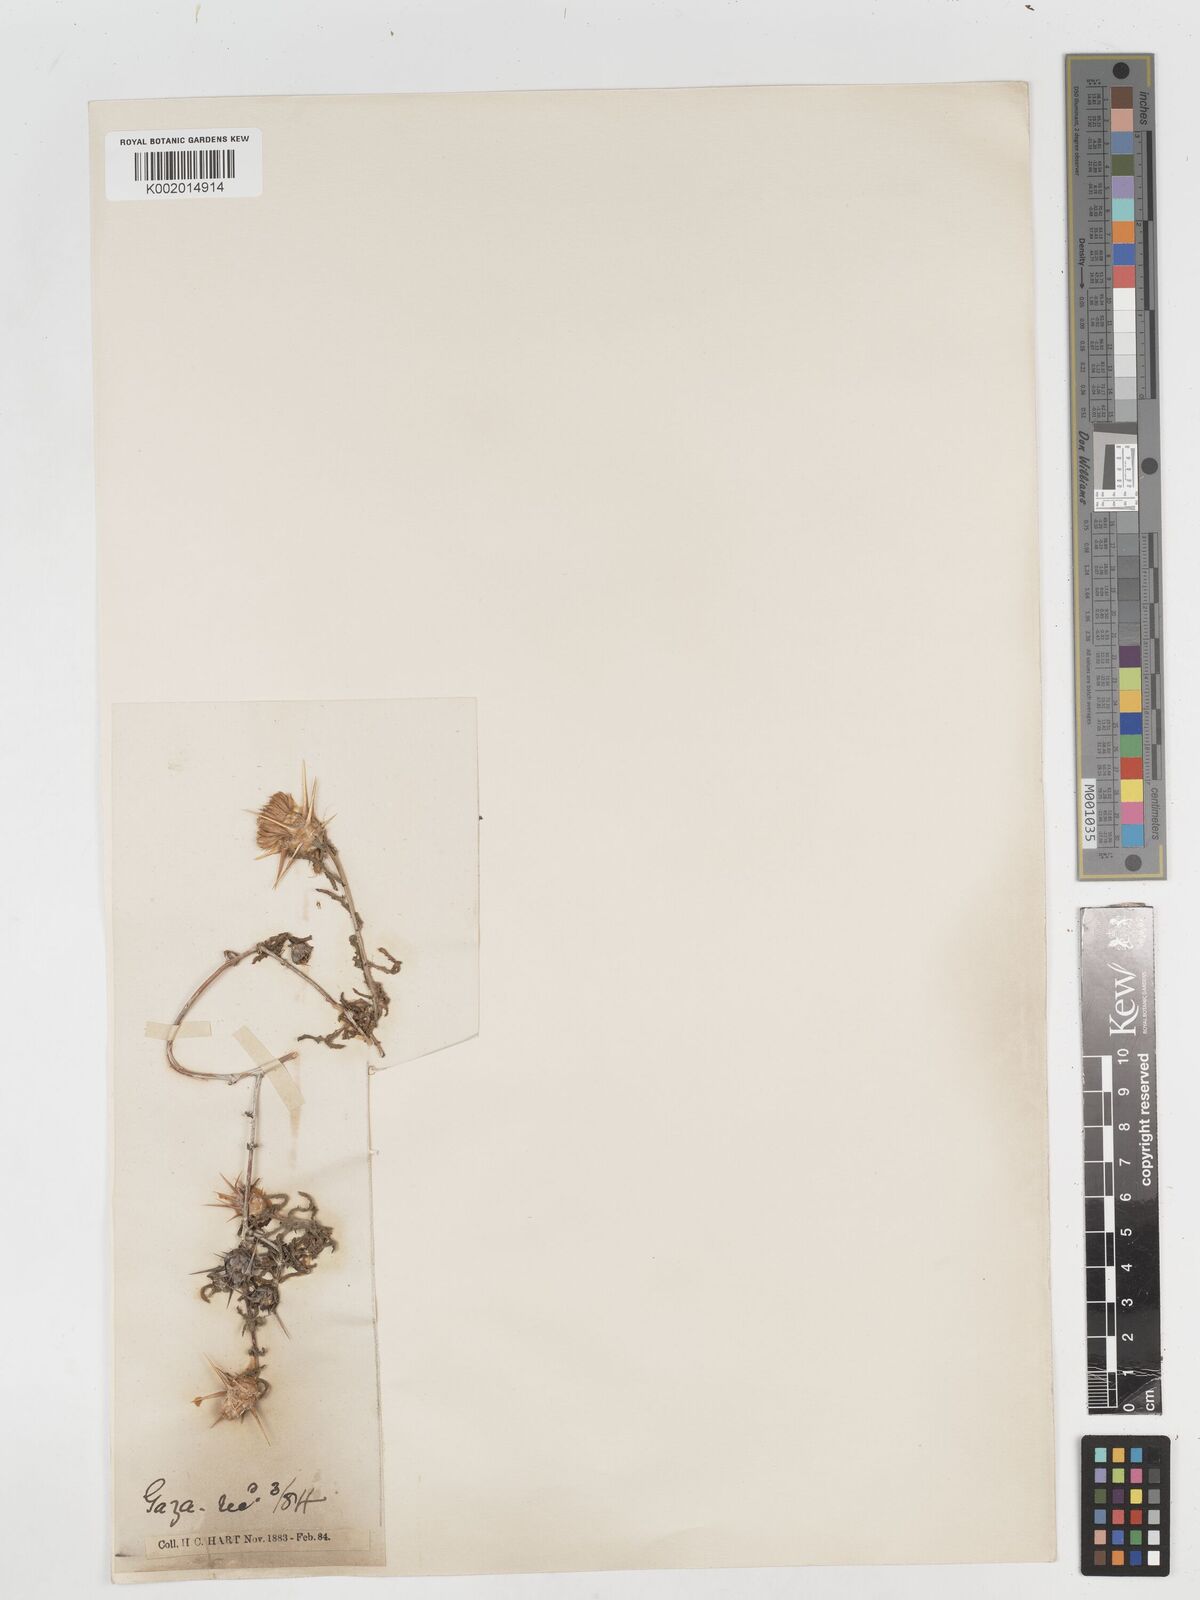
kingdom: Plantae
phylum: Tracheophyta
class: Magnoliopsida
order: Asterales
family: Asteraceae
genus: Centaurea
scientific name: Centaurea procurrens
